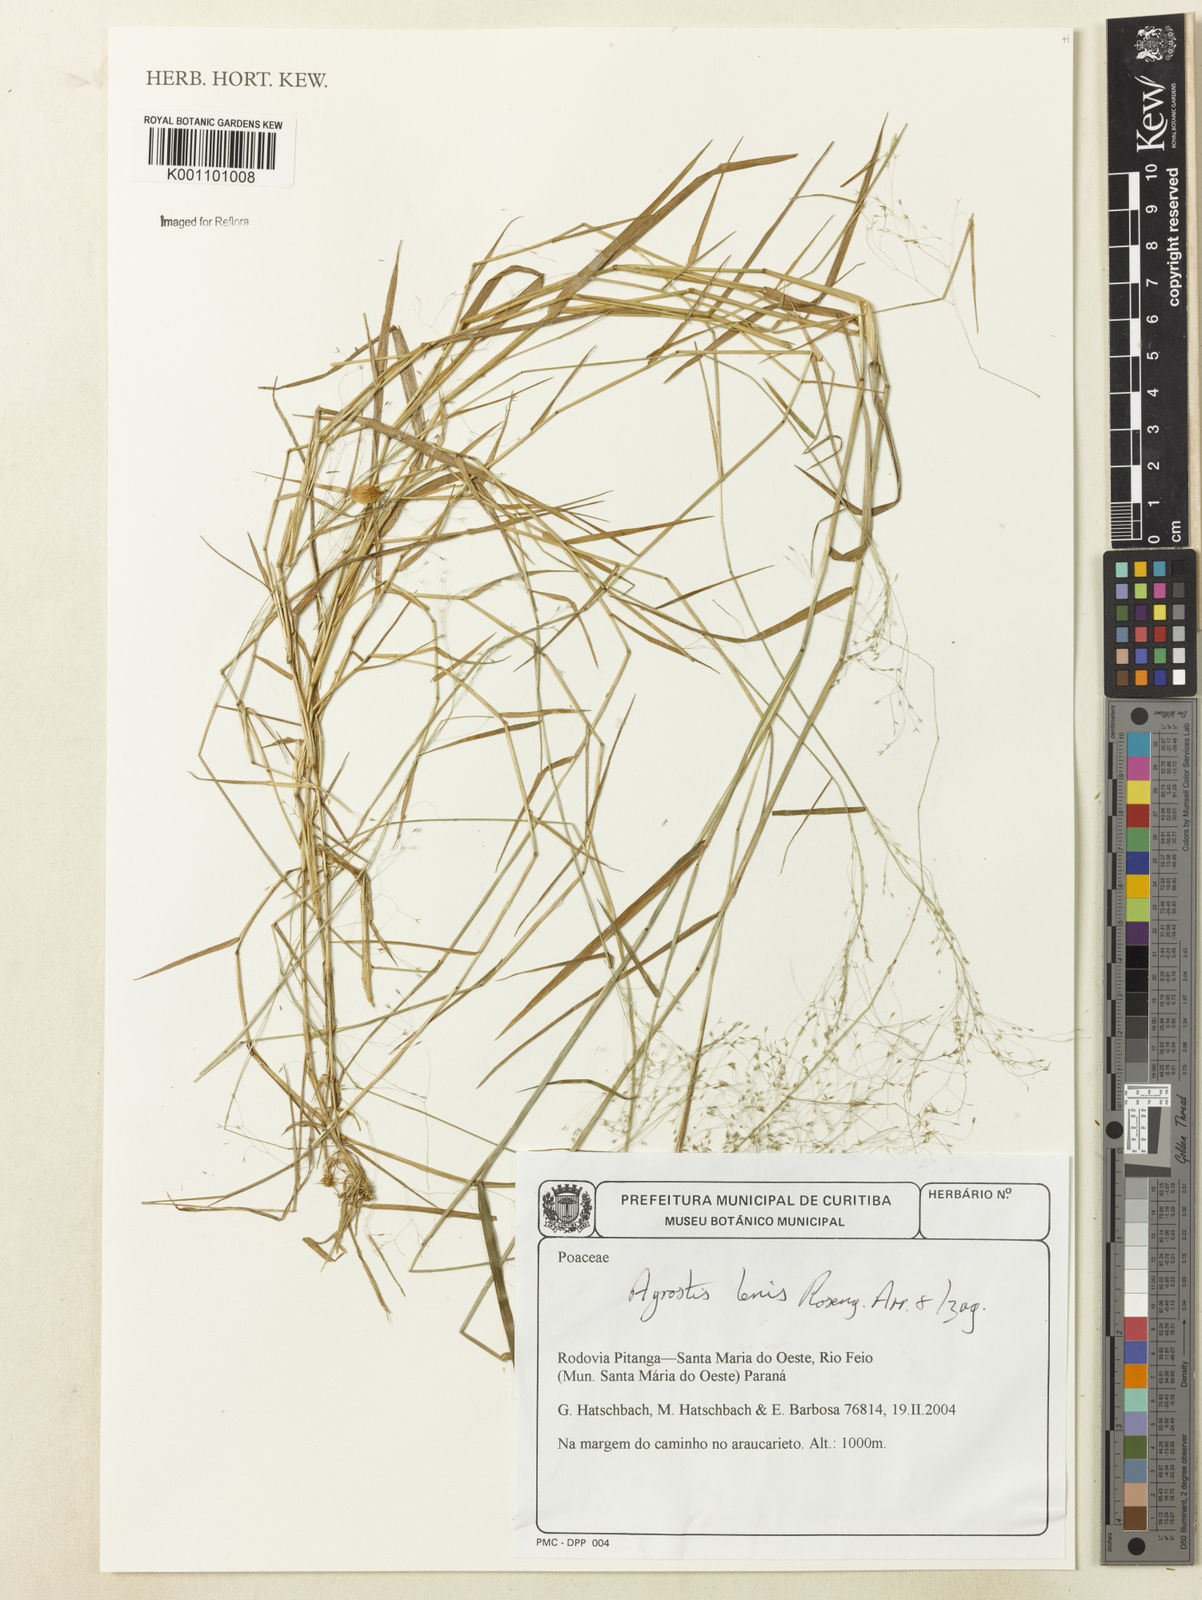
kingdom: Plantae
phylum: Tracheophyta
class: Liliopsida
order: Poales
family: Poaceae
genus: Agrostis
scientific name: Agrostis
